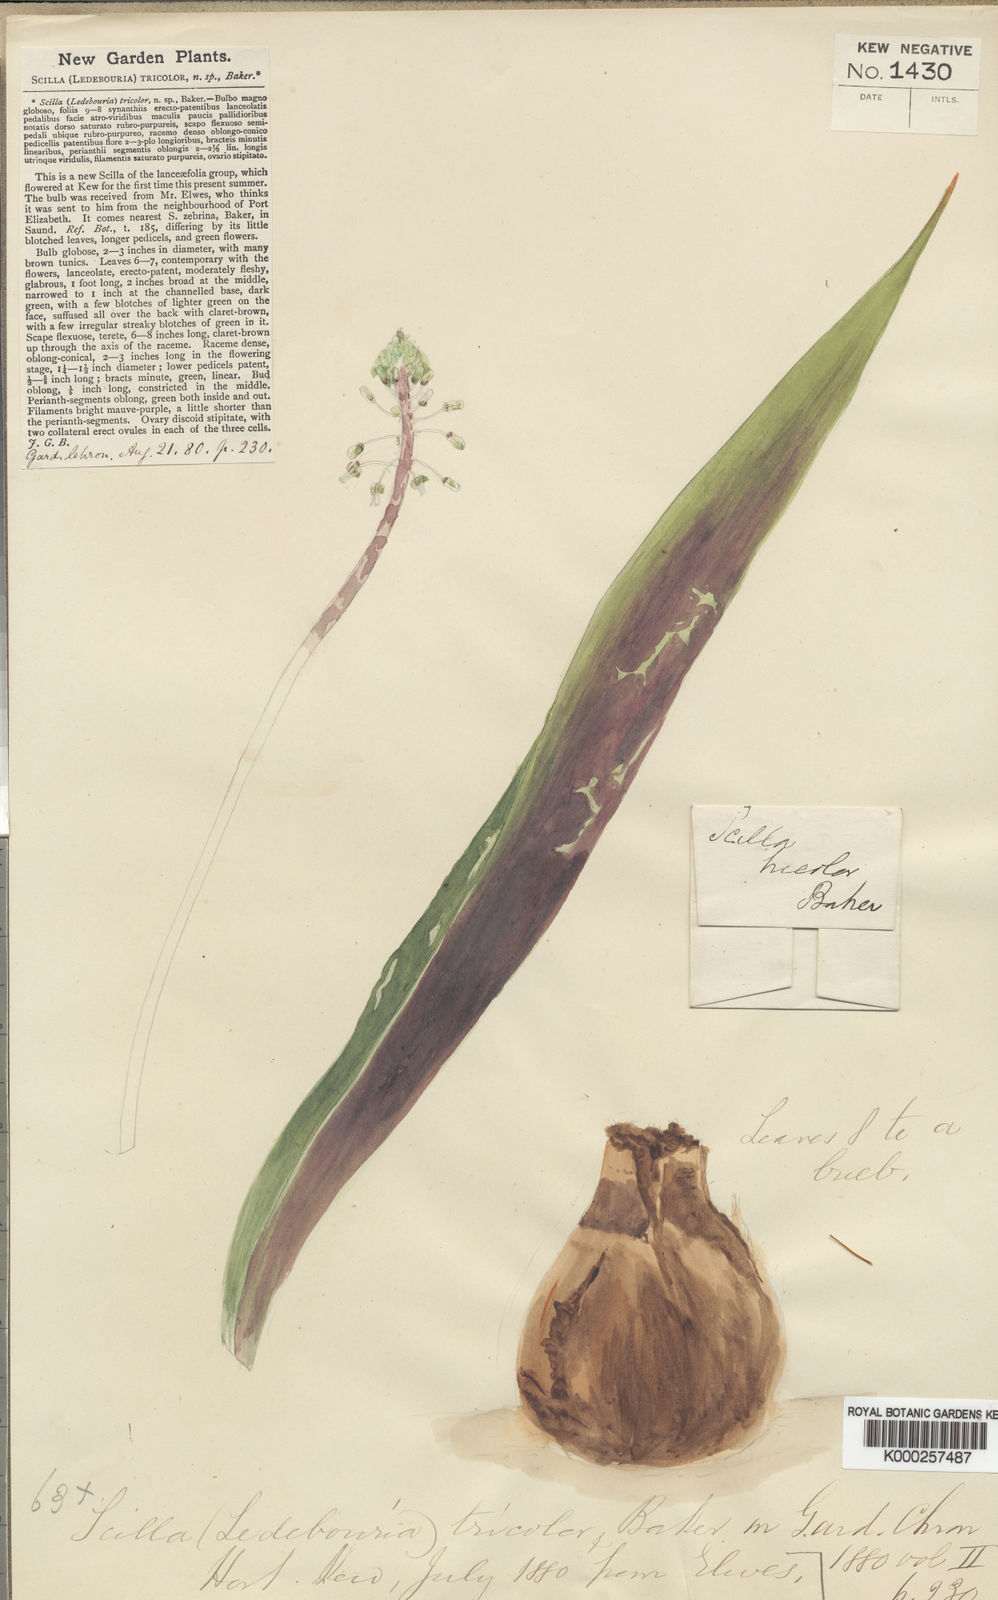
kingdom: Plantae
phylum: Tracheophyta
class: Liliopsida
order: Asparagales
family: Asparagaceae
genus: Ledebouria
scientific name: Ledebouria floribunda
